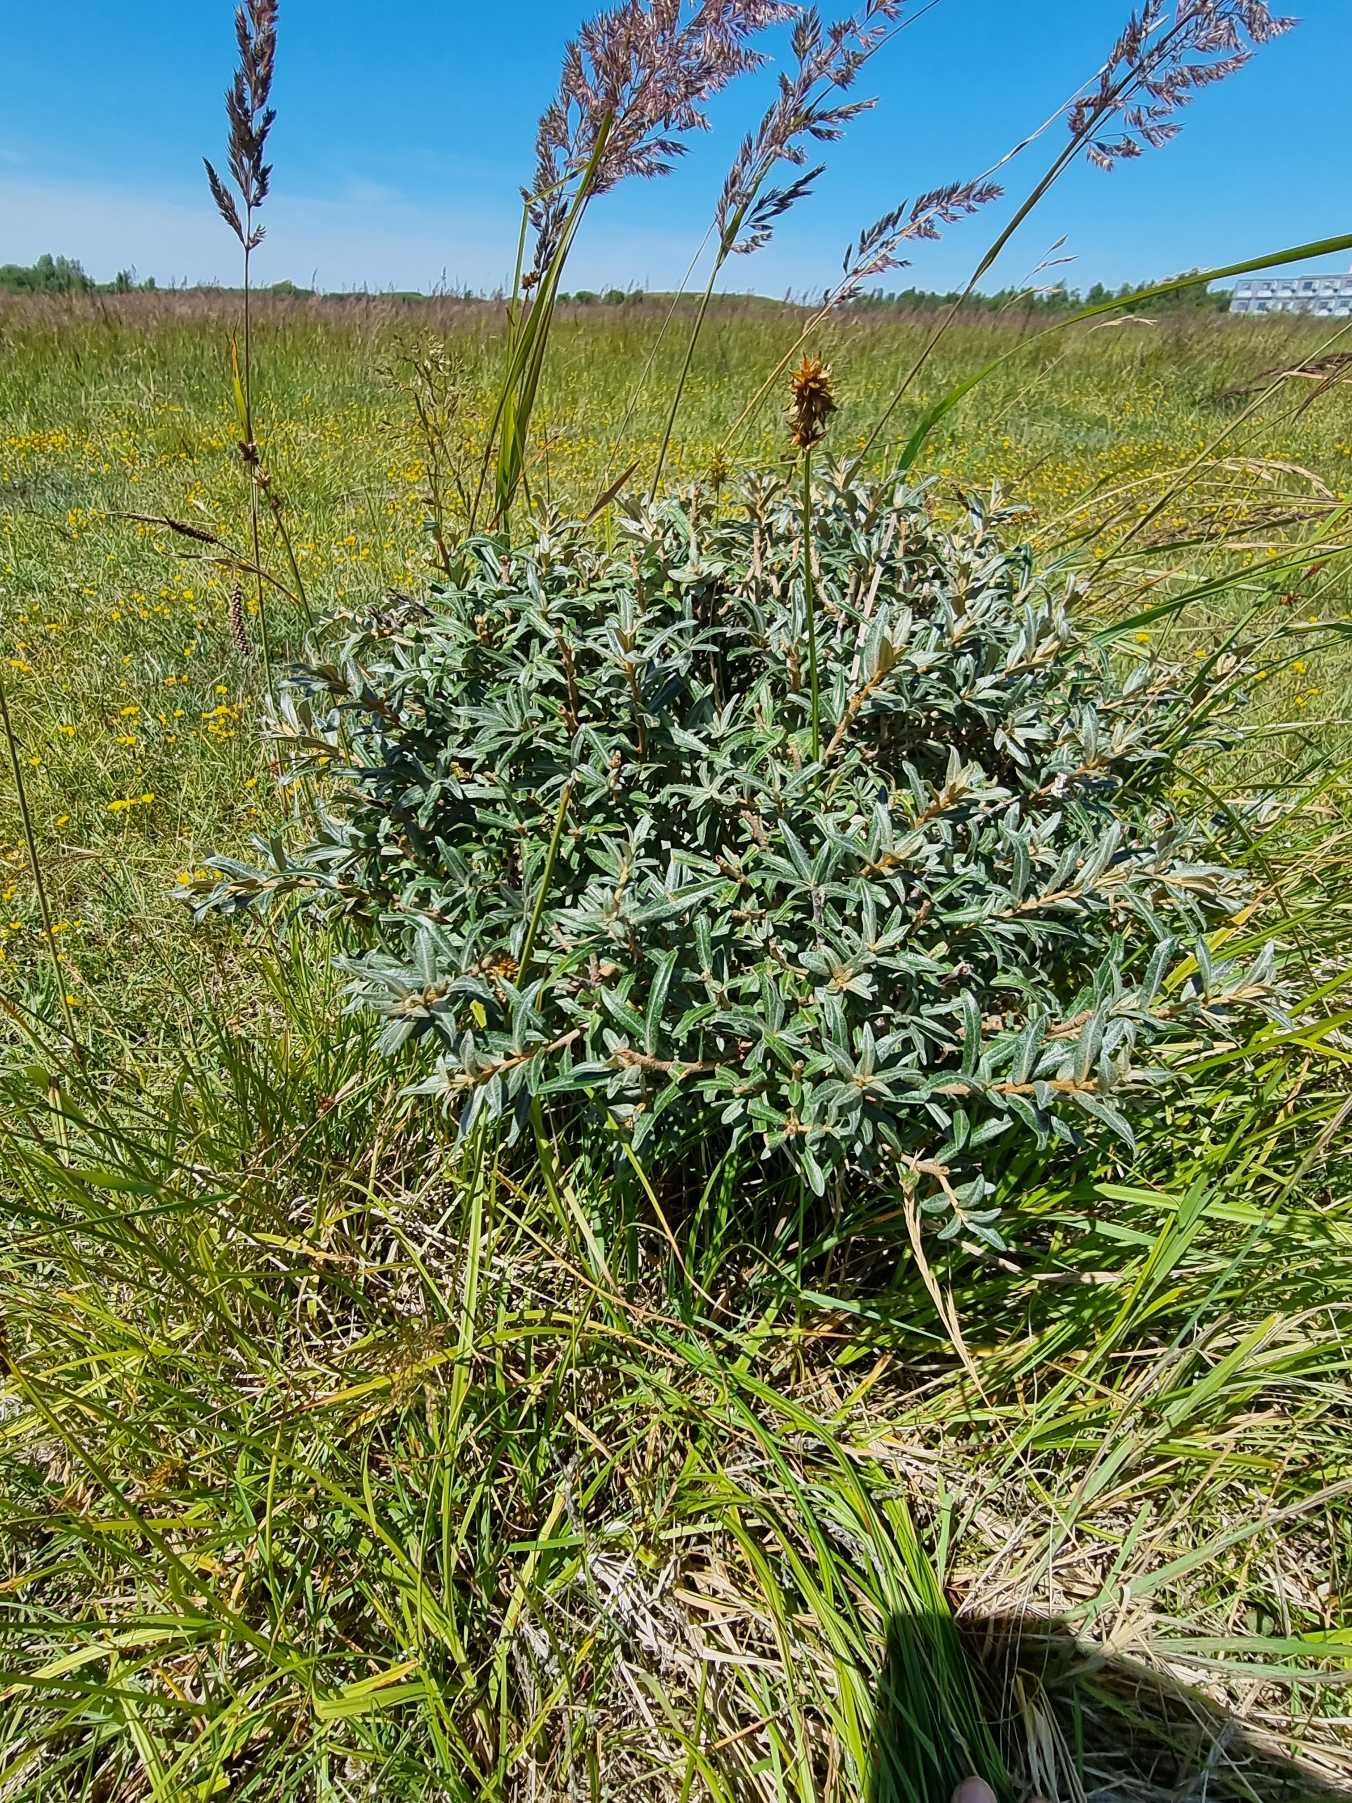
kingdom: Plantae
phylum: Tracheophyta
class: Magnoliopsida
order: Rosales
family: Elaeagnaceae
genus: Hippophae
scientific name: Hippophae rhamnoides
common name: Havtorn
